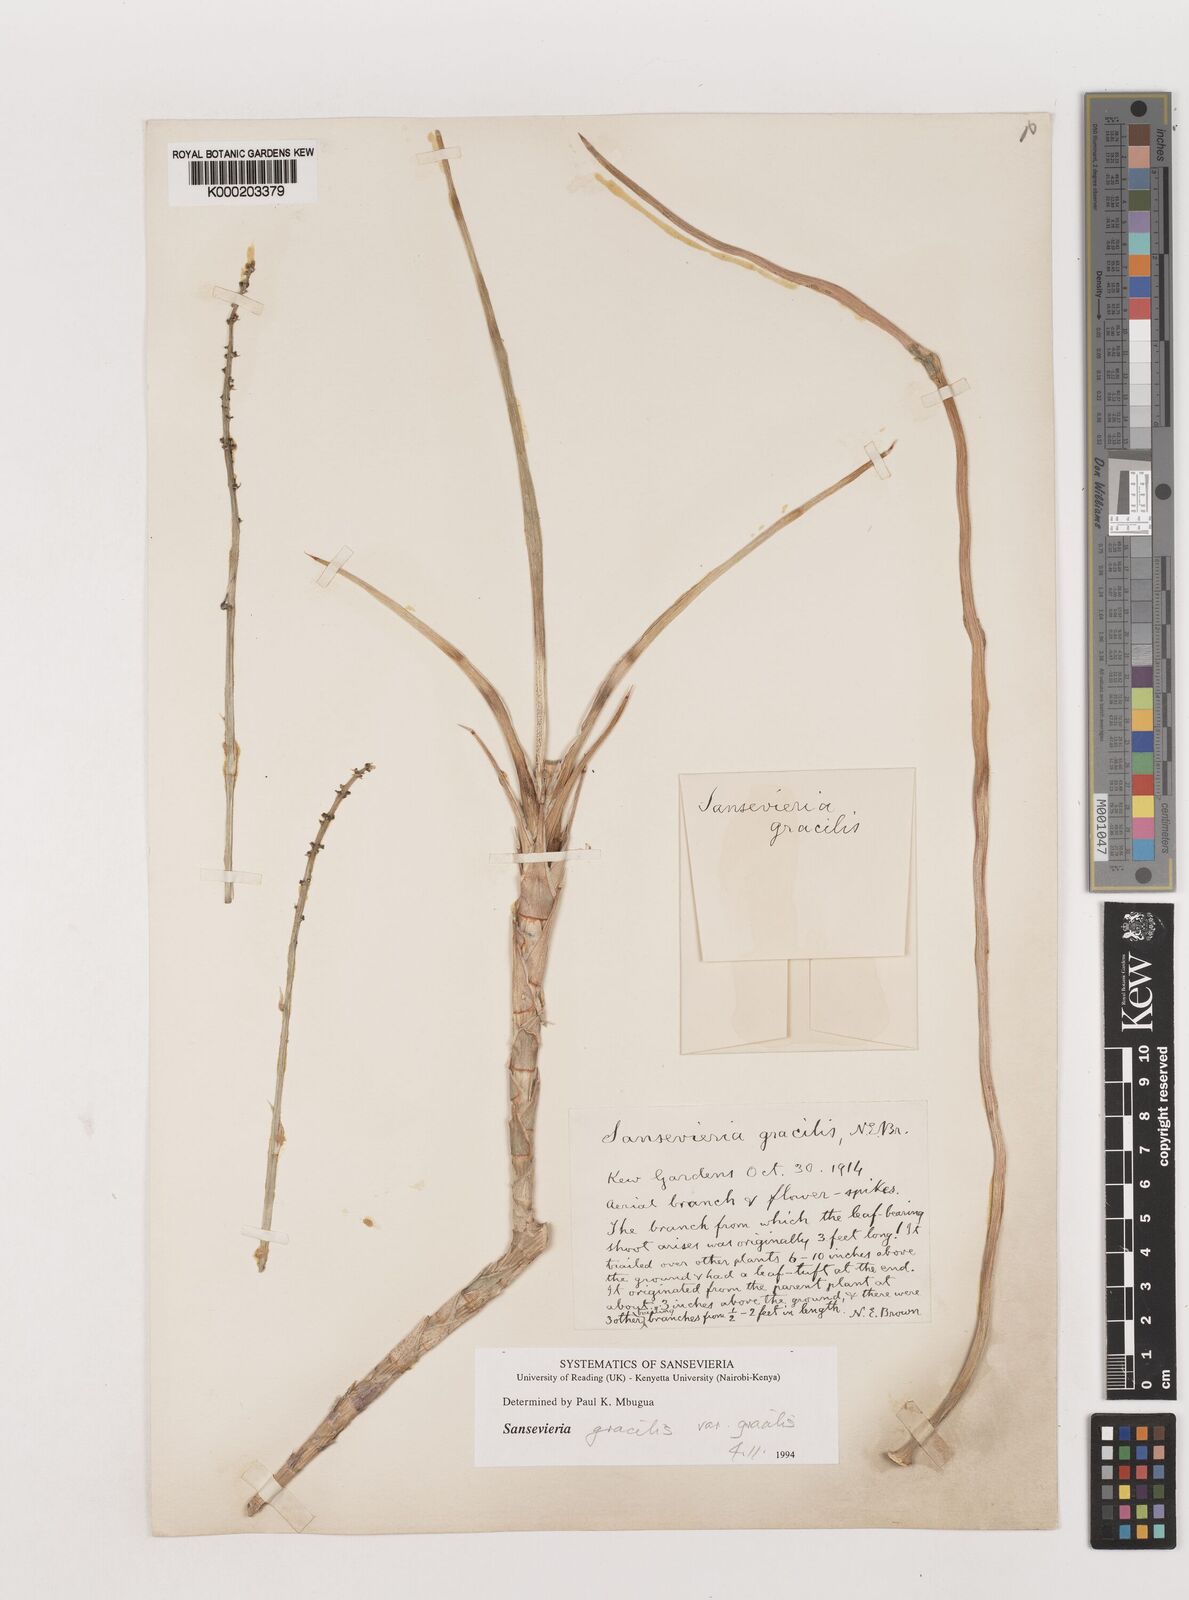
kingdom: Plantae
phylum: Tracheophyta
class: Liliopsida
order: Asparagales
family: Asparagaceae
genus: Dracaena
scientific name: Dracaena serpenta
